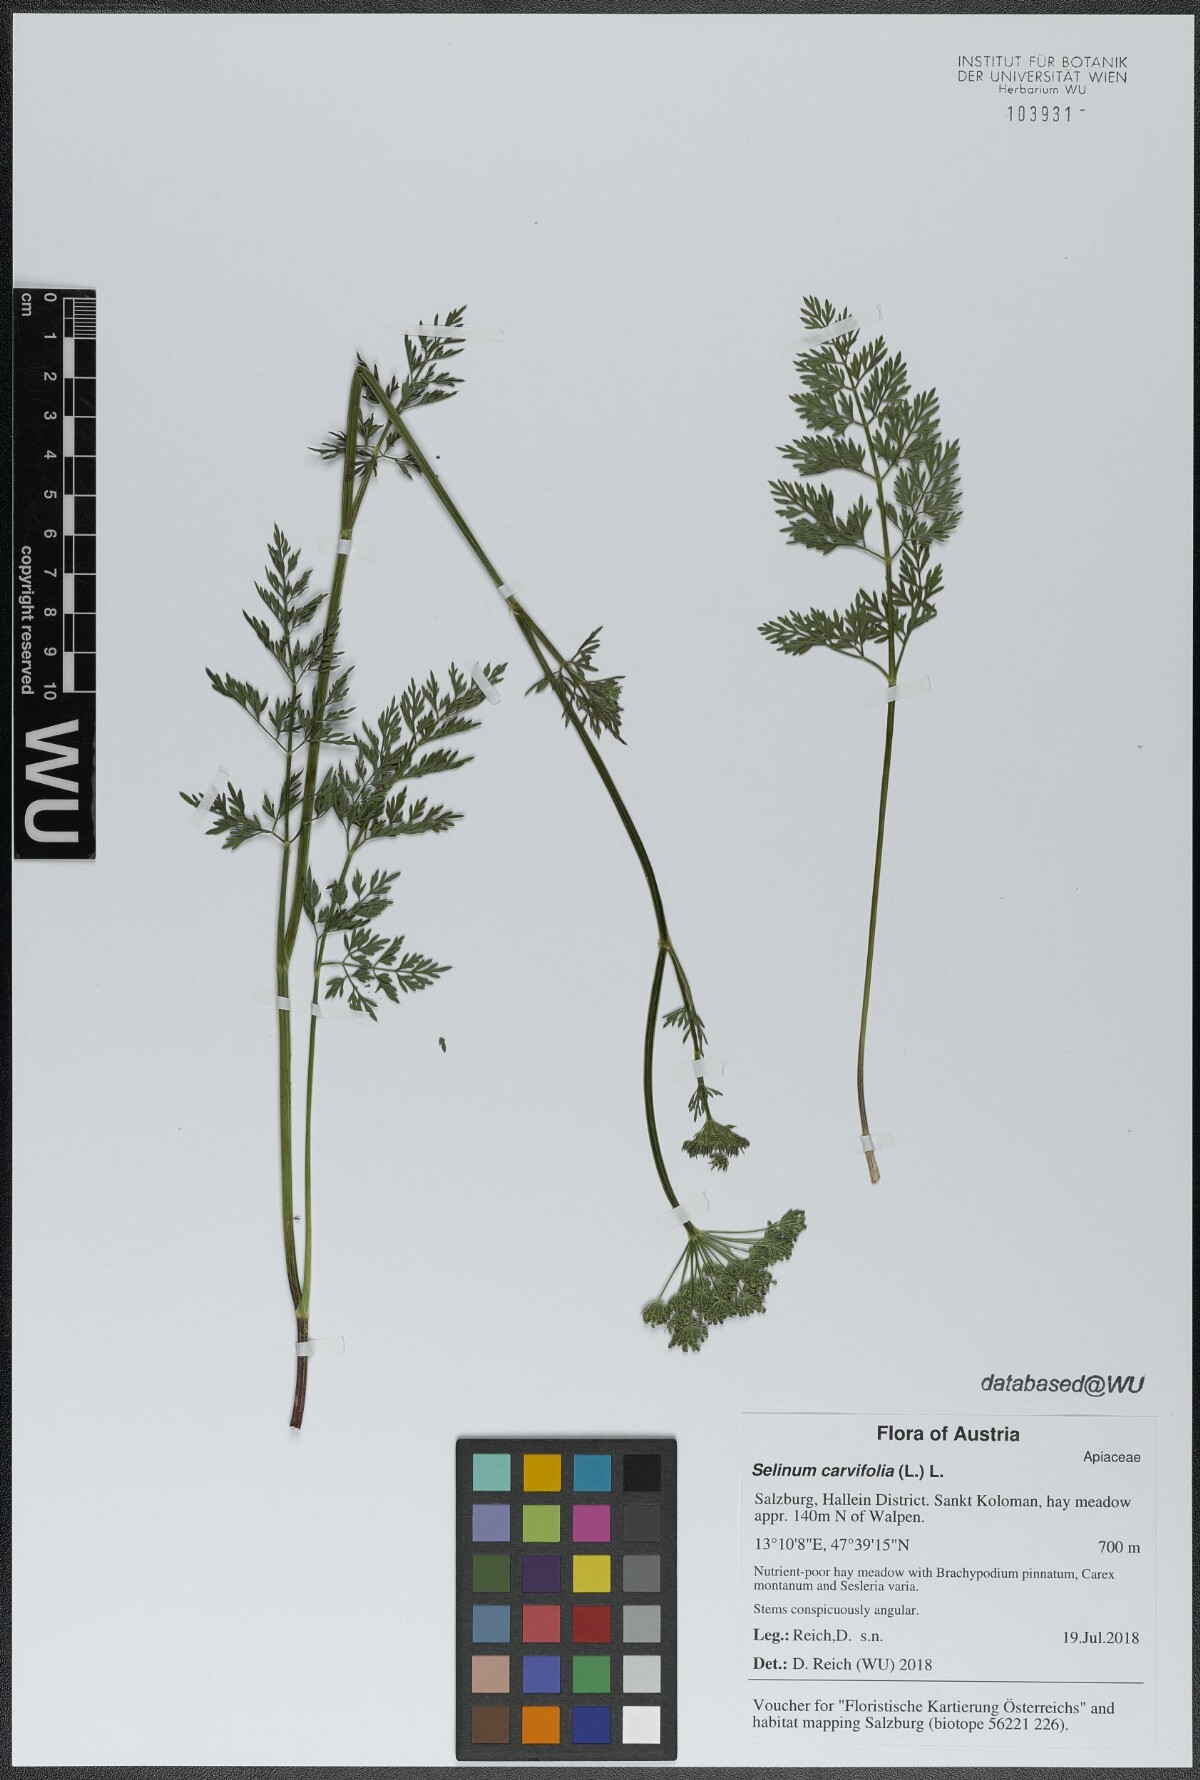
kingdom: Plantae
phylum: Tracheophyta
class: Magnoliopsida
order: Apiales
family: Apiaceae
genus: Selinum
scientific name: Selinum carvifolia
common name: Cambridge milk-parsley
